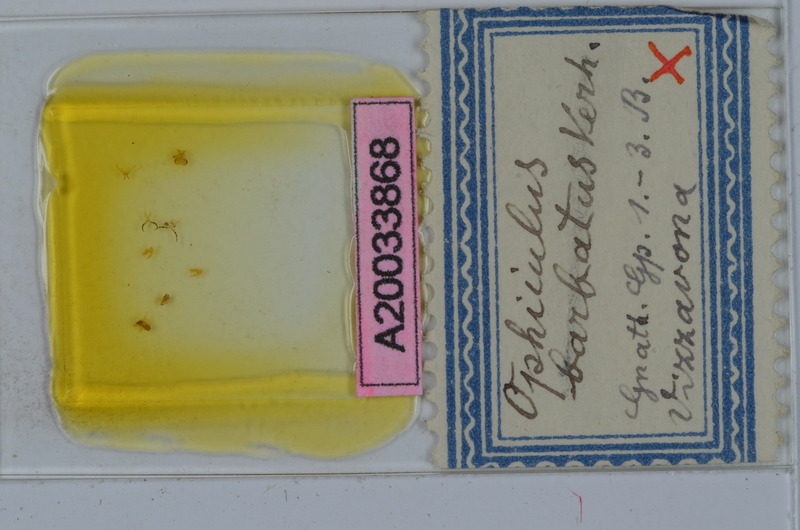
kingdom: Animalia
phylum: Arthropoda
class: Diplopoda
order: Julida
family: Julidae
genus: Ophyiulus
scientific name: Ophyiulus chilopogon
